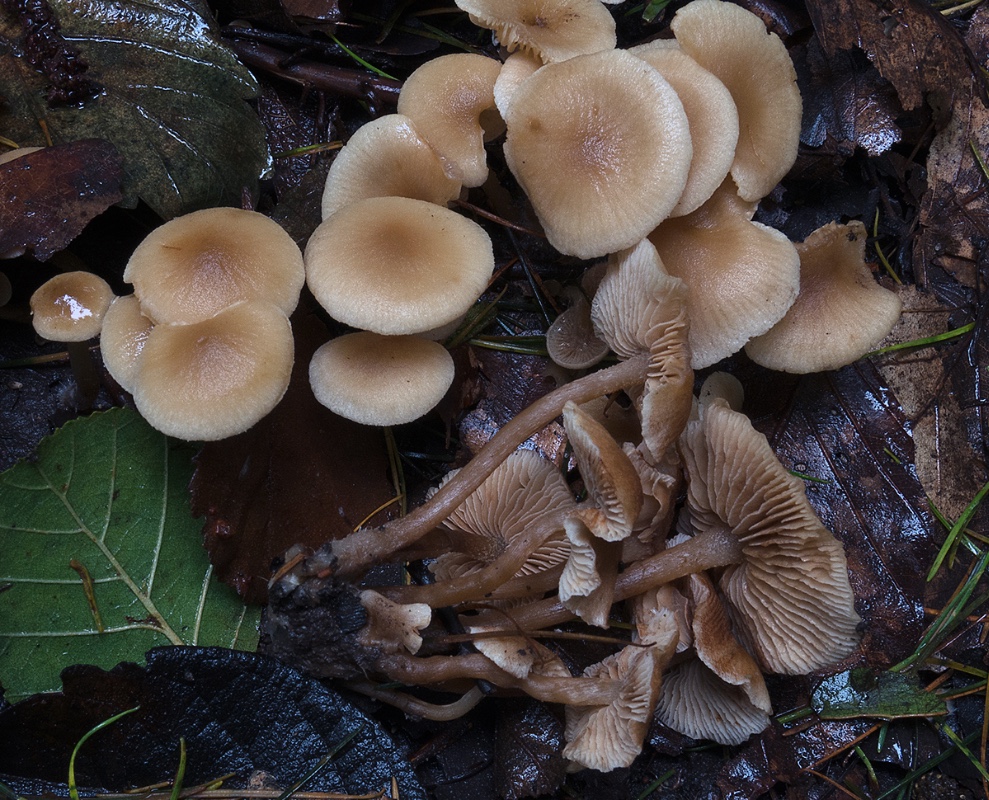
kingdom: Fungi
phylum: Basidiomycota
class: Agaricomycetes
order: Agaricales
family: Hymenogastraceae
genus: Naucoria
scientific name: Naucoria escharioides
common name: lys elle-knaphat
